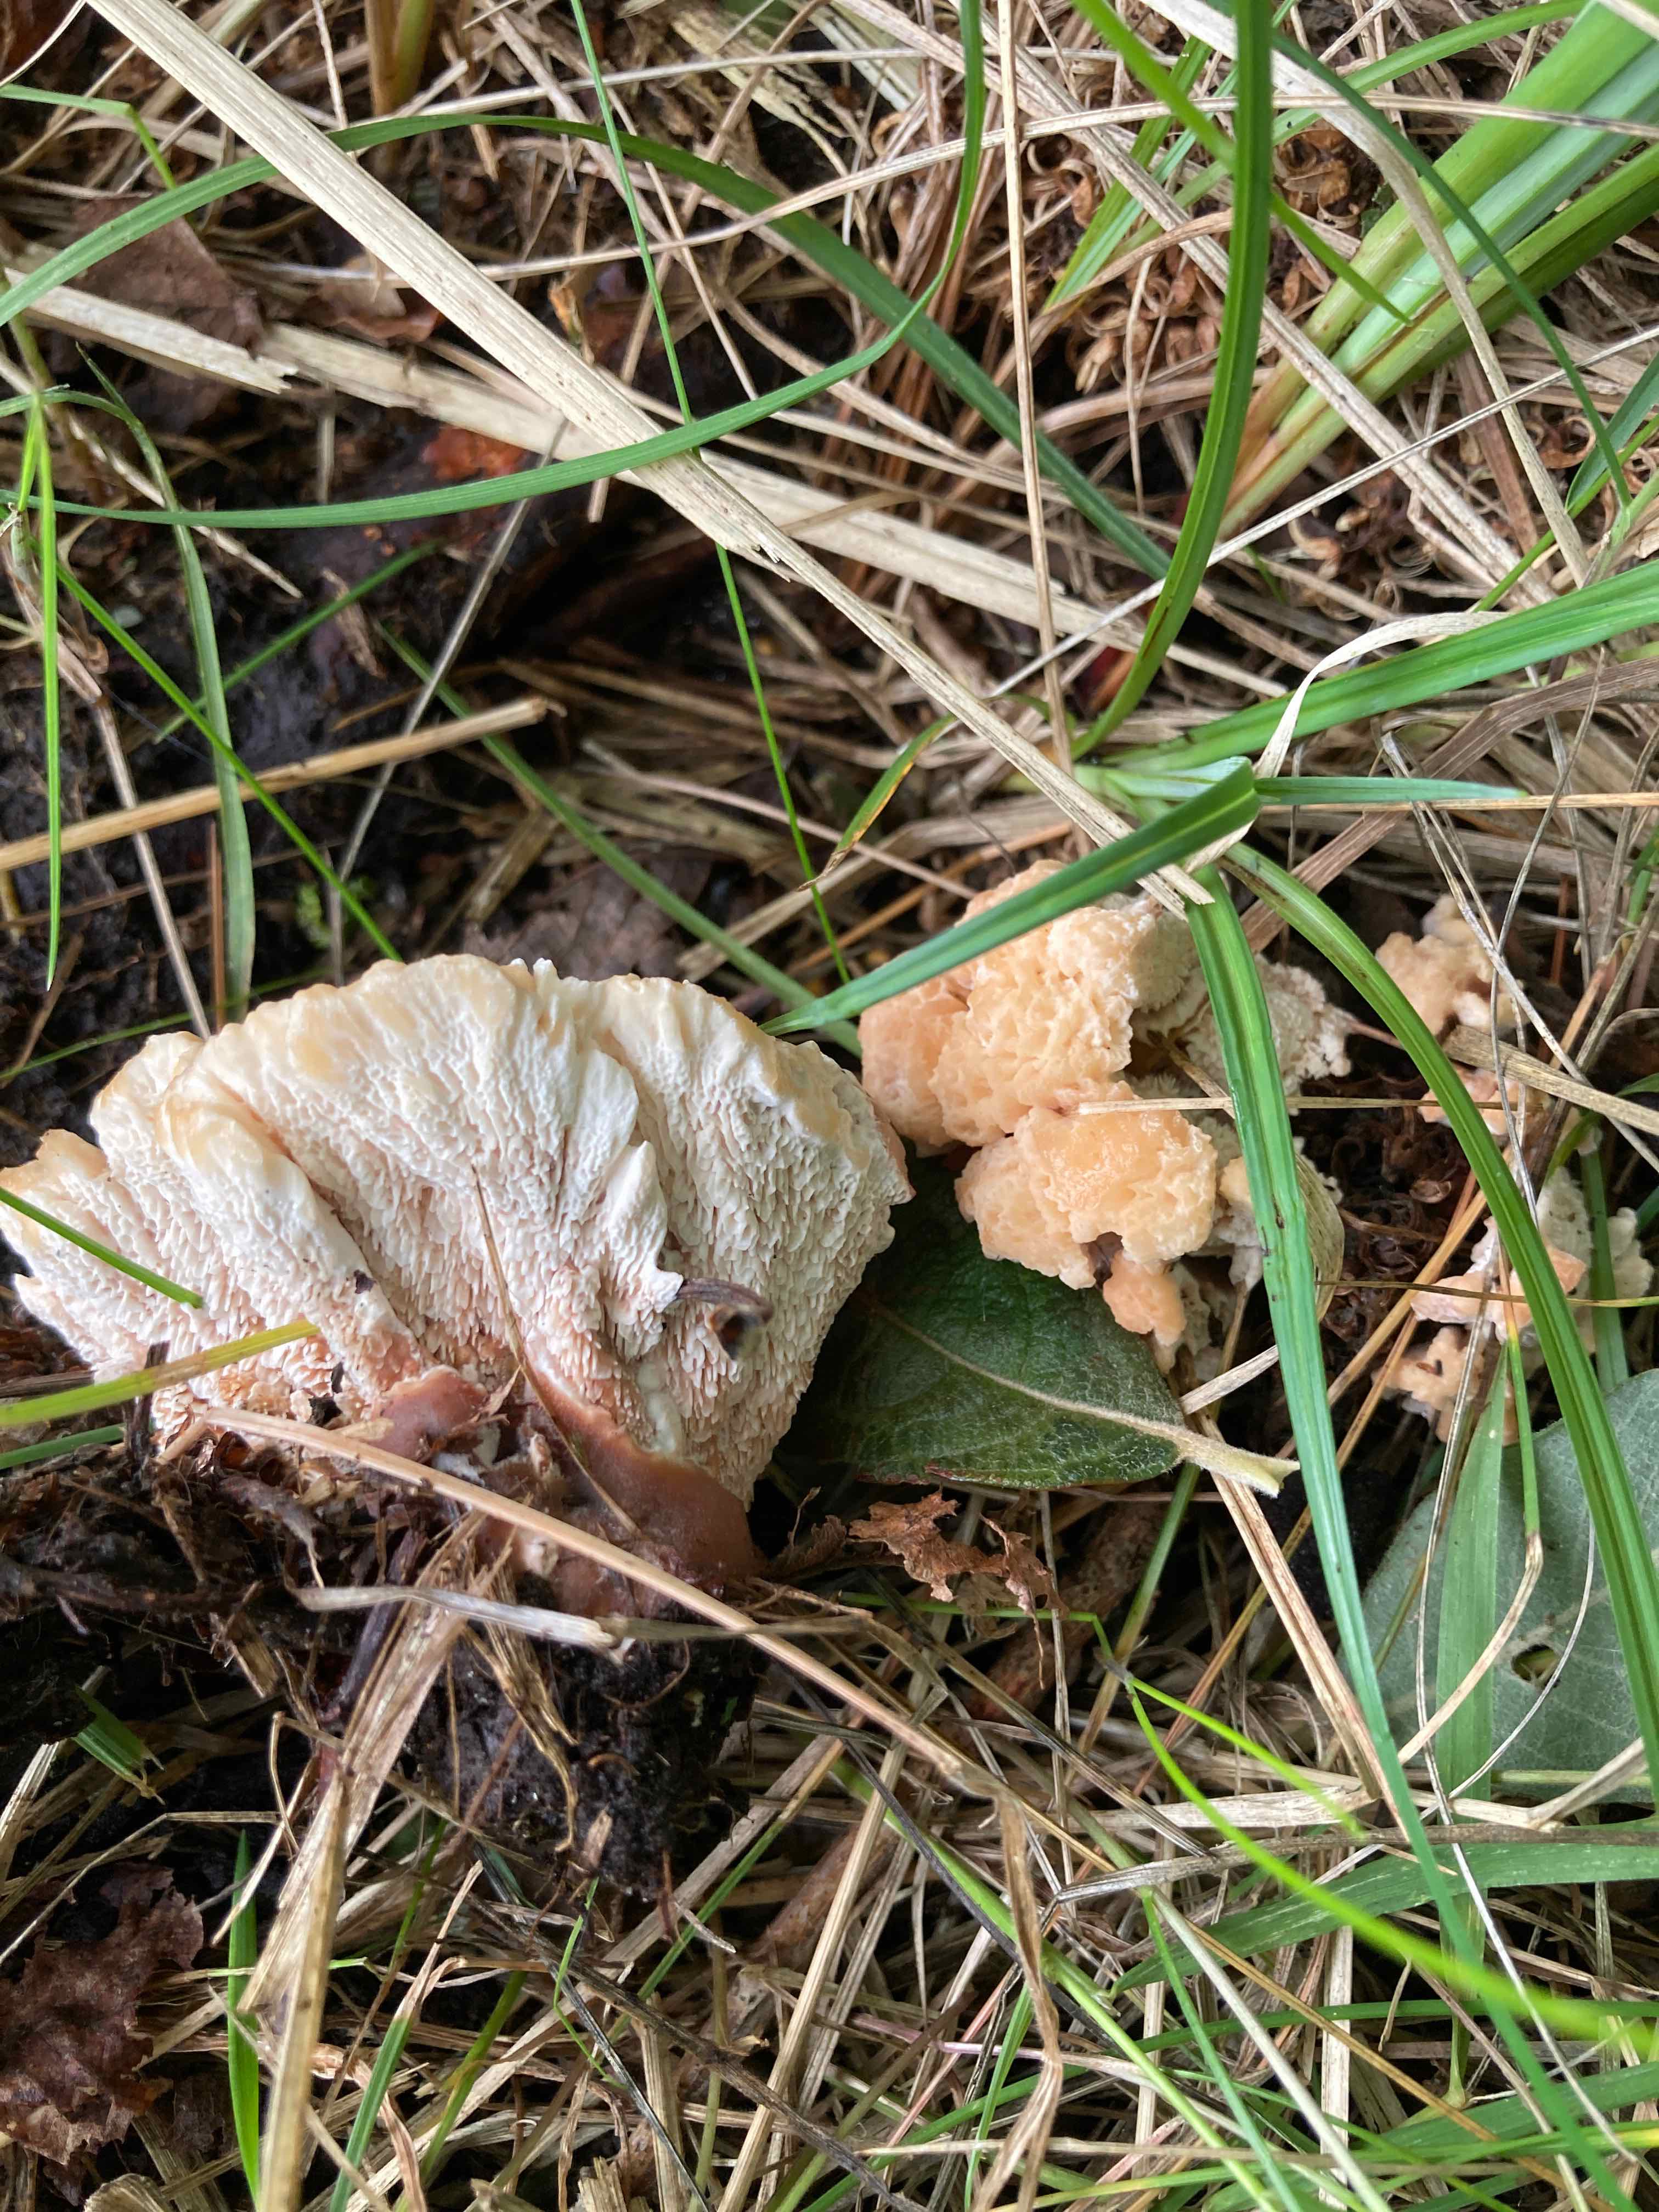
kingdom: Fungi
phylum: Basidiomycota
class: Agaricomycetes
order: Polyporales
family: Podoscyphaceae
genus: Abortiporus
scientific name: Abortiporus biennis
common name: rødmende pjalteporesvamp
